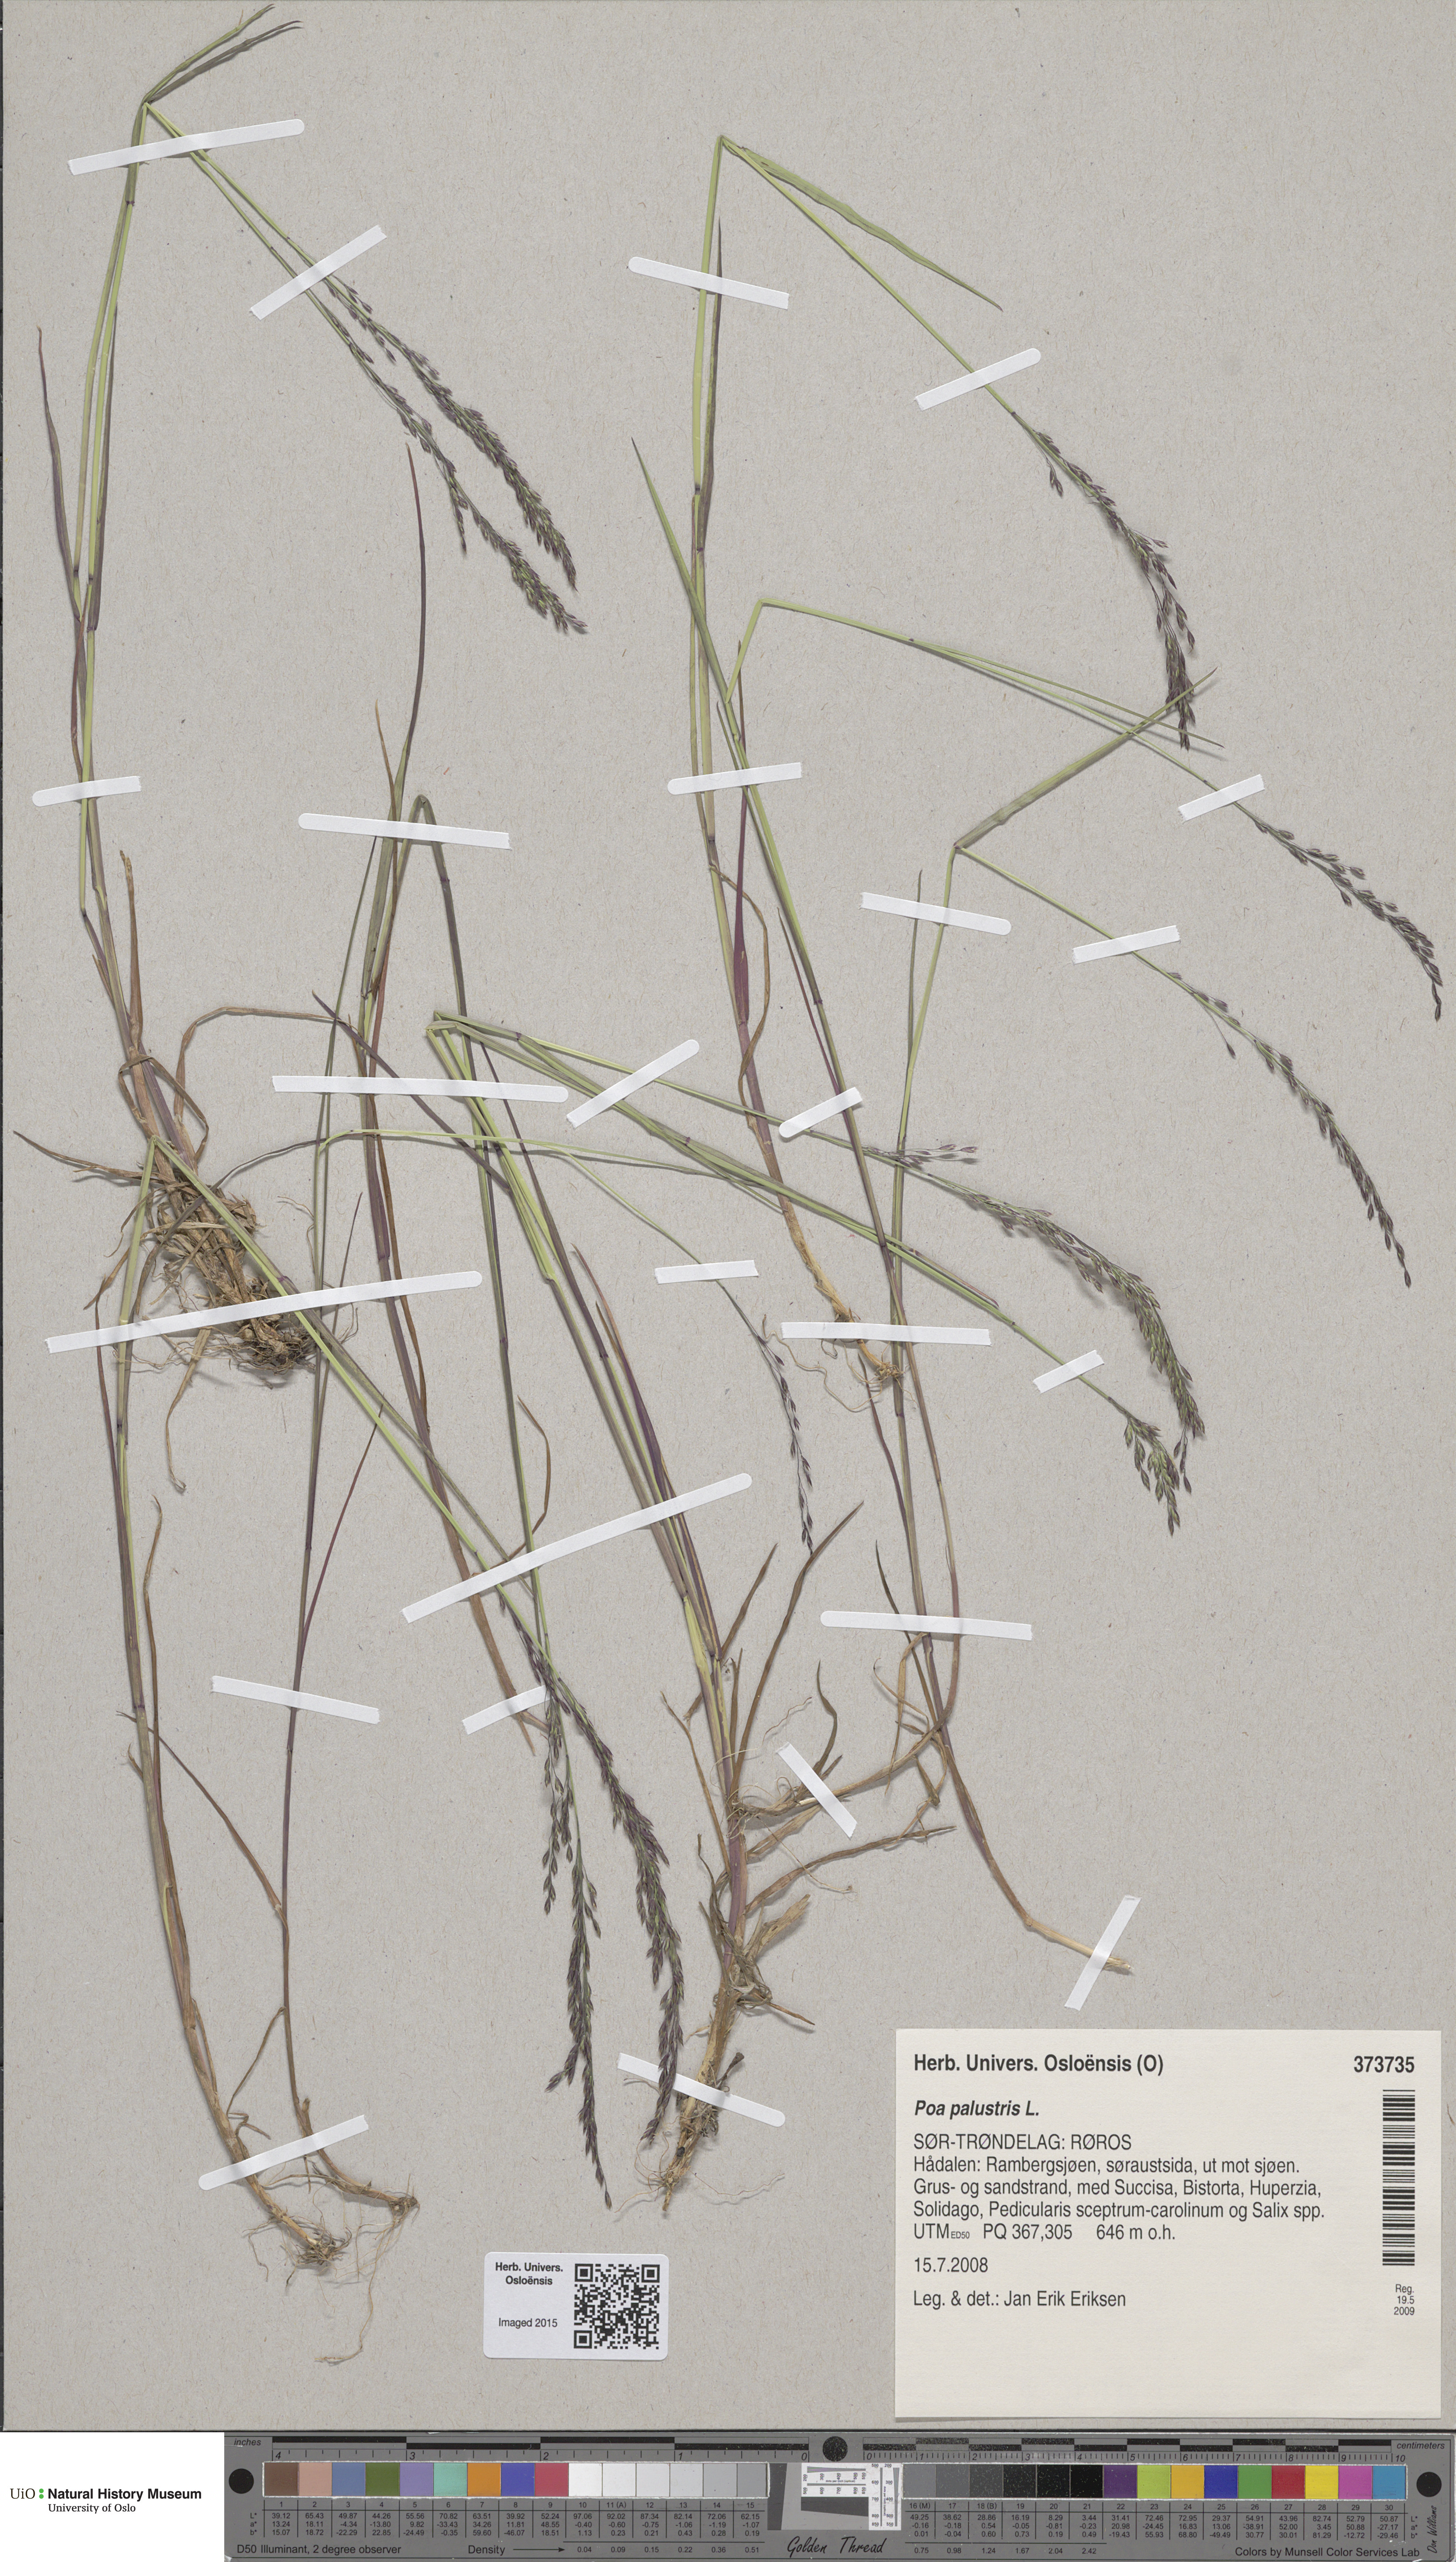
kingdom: Plantae
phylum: Tracheophyta
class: Liliopsida
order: Poales
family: Poaceae
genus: Poa
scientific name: Poa palustris
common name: Swamp meadow-grass
